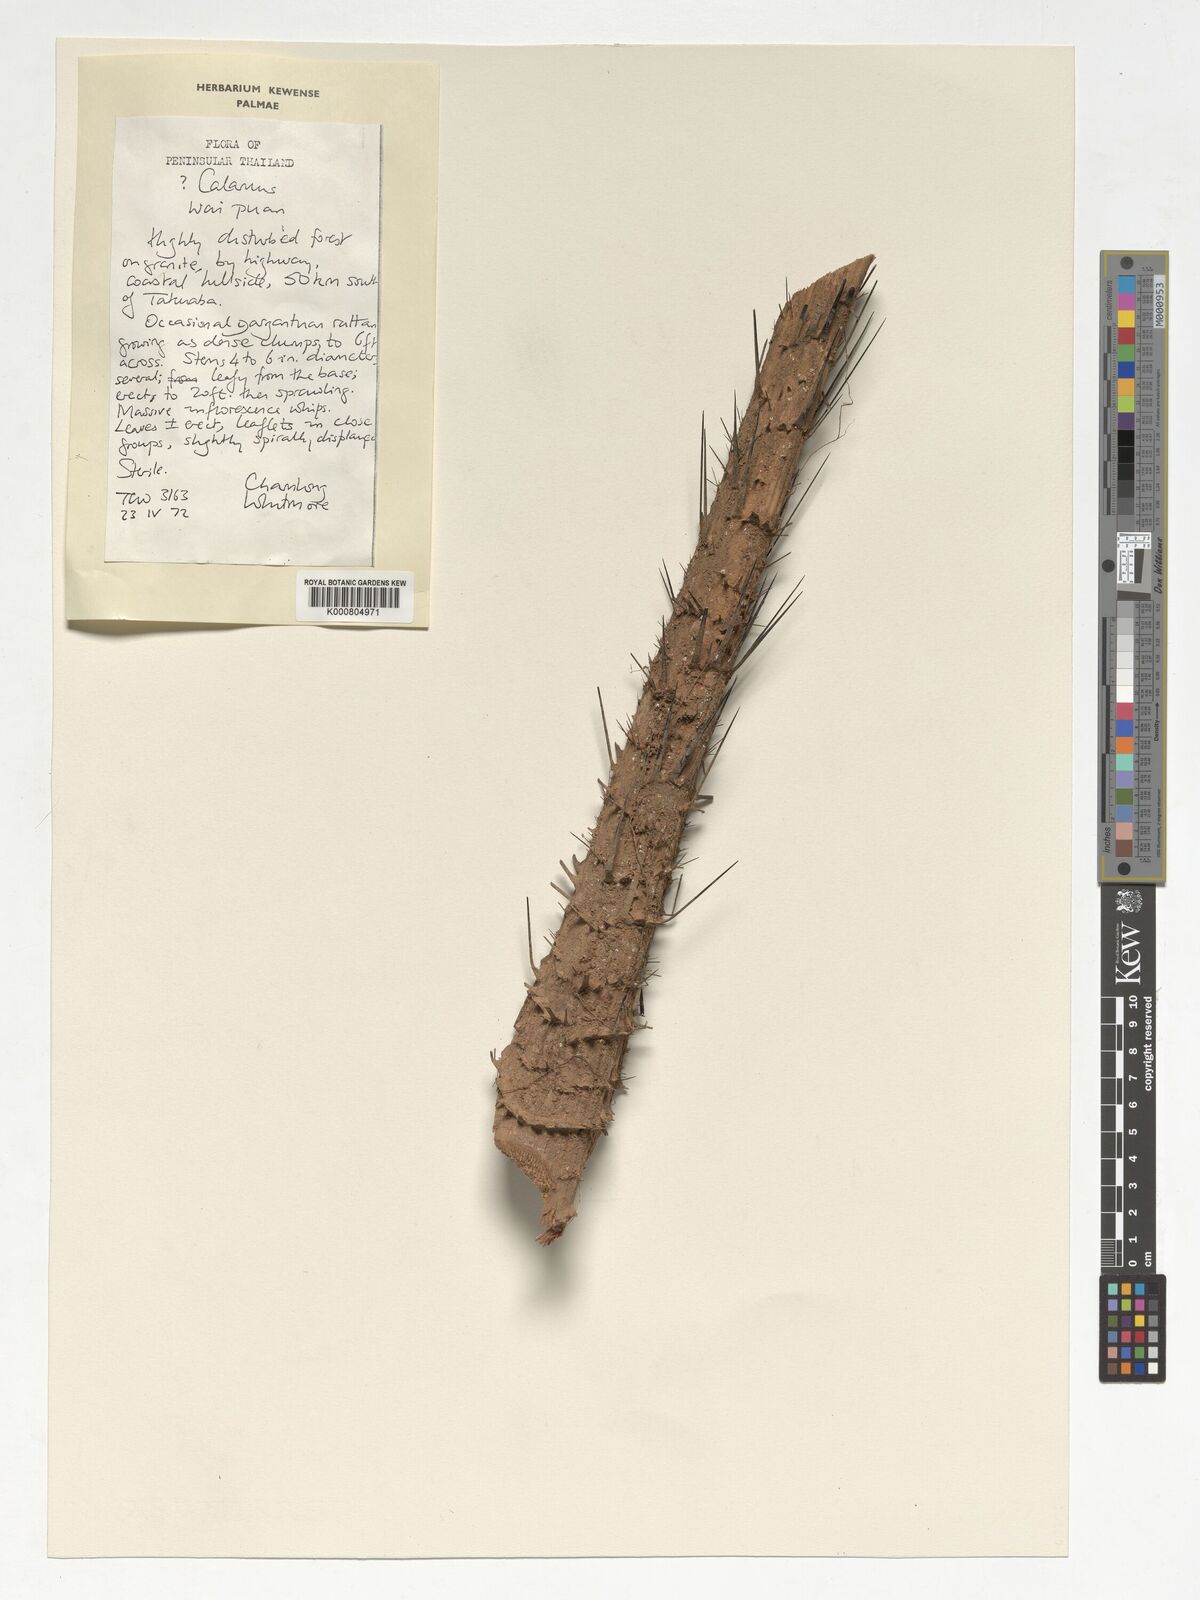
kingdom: Plantae
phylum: Tracheophyta
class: Liliopsida
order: Arecales
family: Arecaceae
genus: Calamus
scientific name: Calamus
